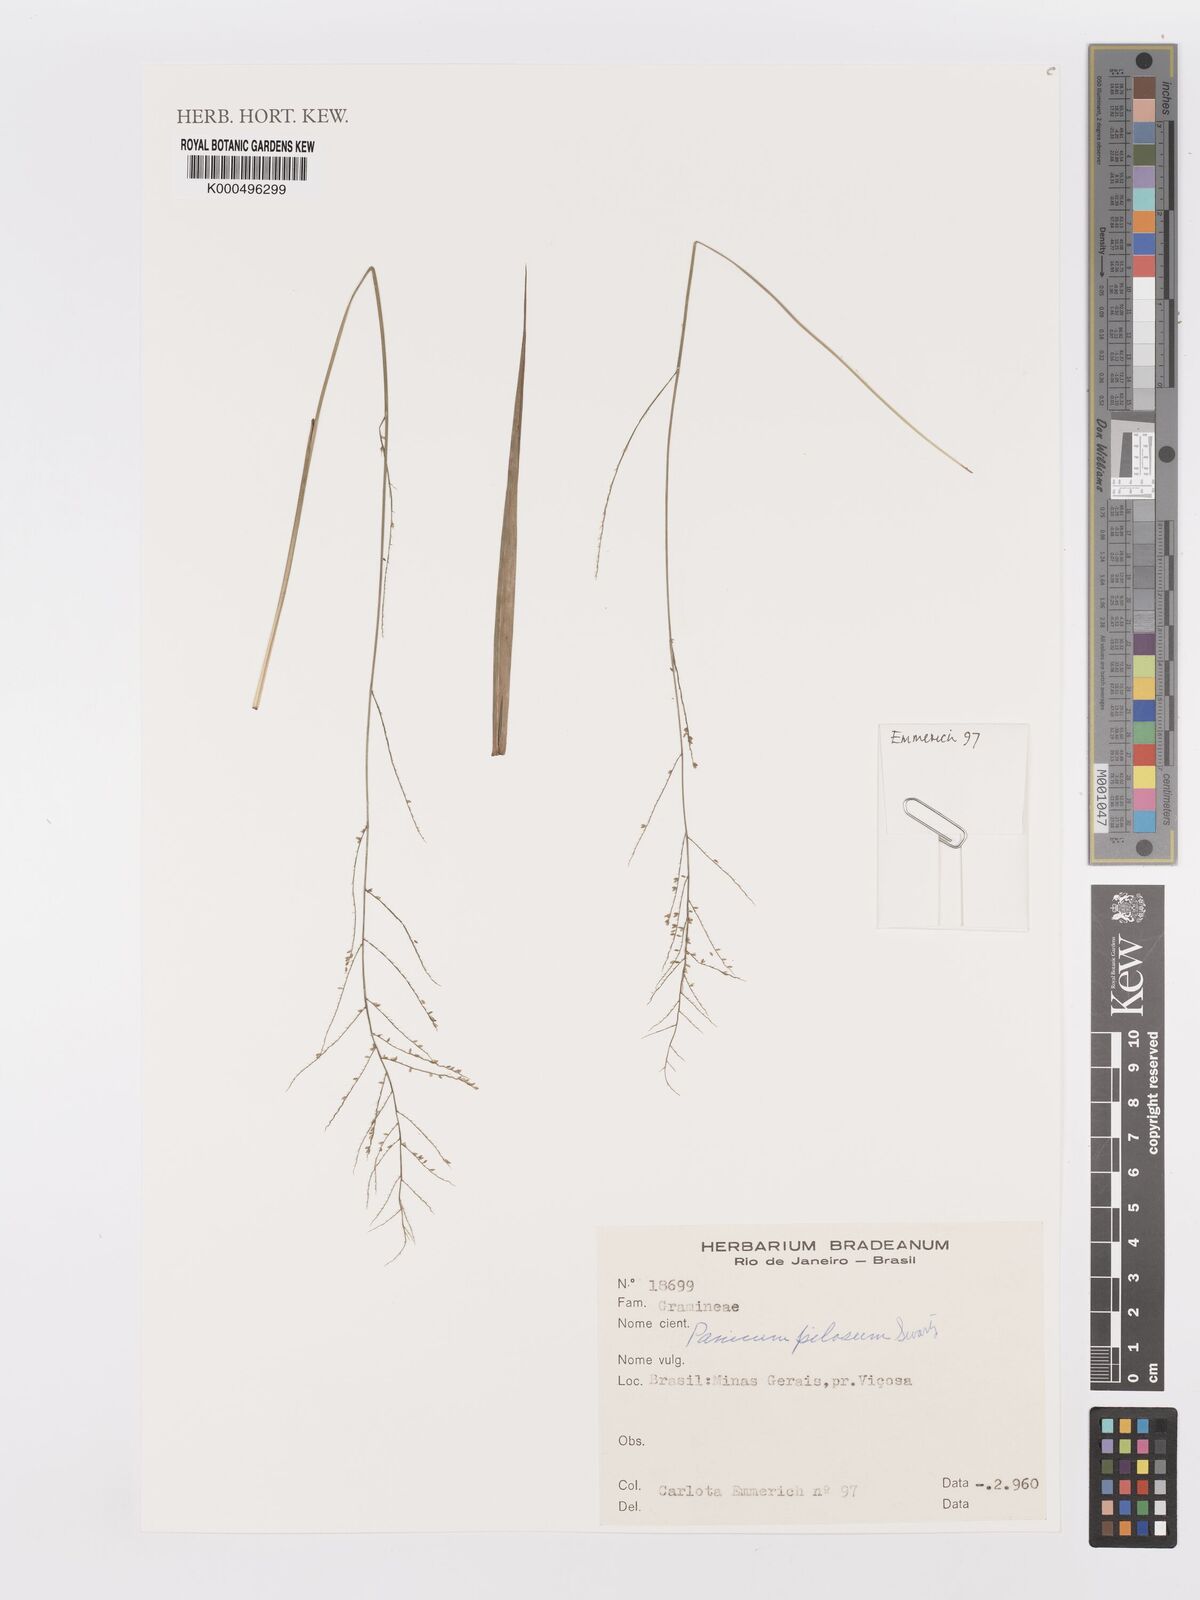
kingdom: Plantae
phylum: Tracheophyta
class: Liliopsida
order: Poales
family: Poaceae
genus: Panicum
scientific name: Panicum
